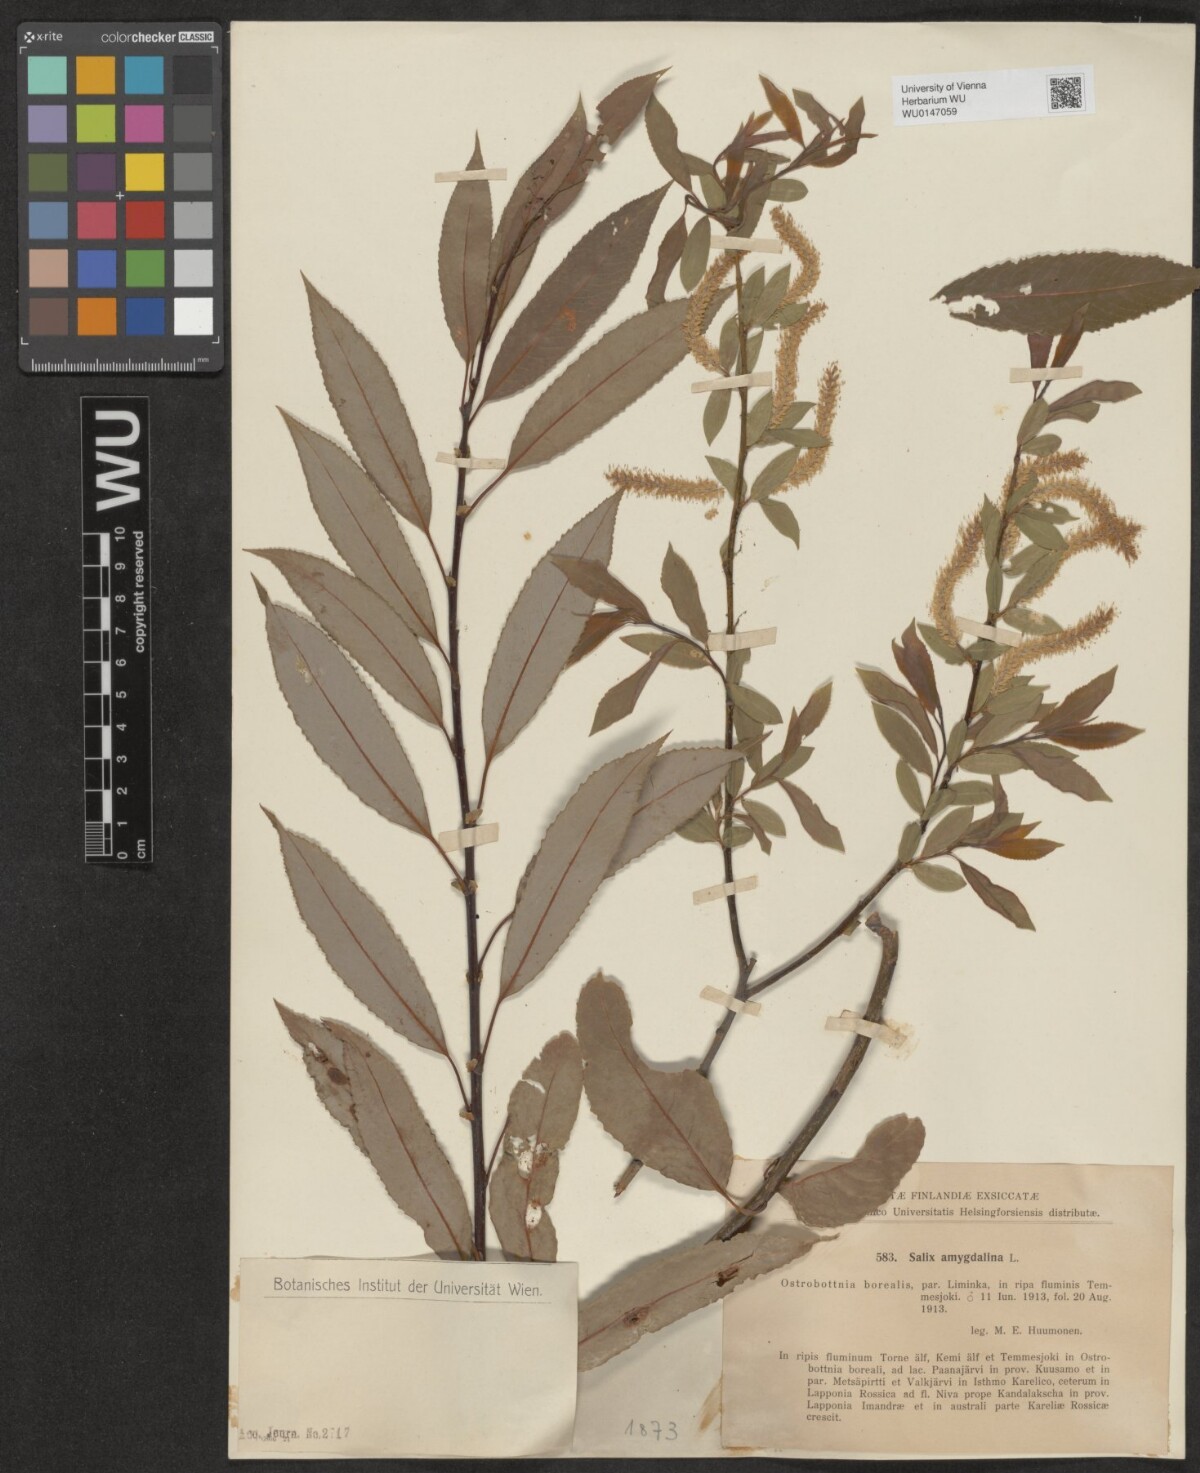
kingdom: Plantae
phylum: Tracheophyta
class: Magnoliopsida
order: Malpighiales
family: Salicaceae
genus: Salix
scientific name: Salix triandra
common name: Almond willow
